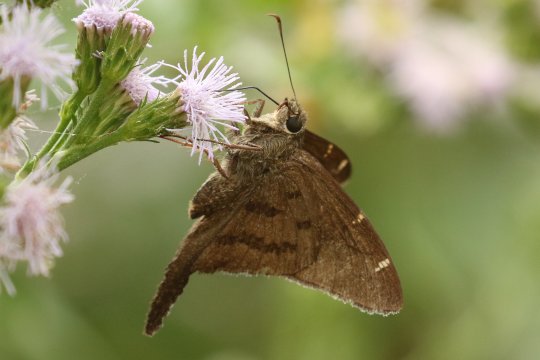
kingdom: Animalia
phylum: Arthropoda
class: Insecta
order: Lepidoptera
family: Hesperiidae
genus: Urbanus
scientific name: Urbanus procne
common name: Brown Longtail
